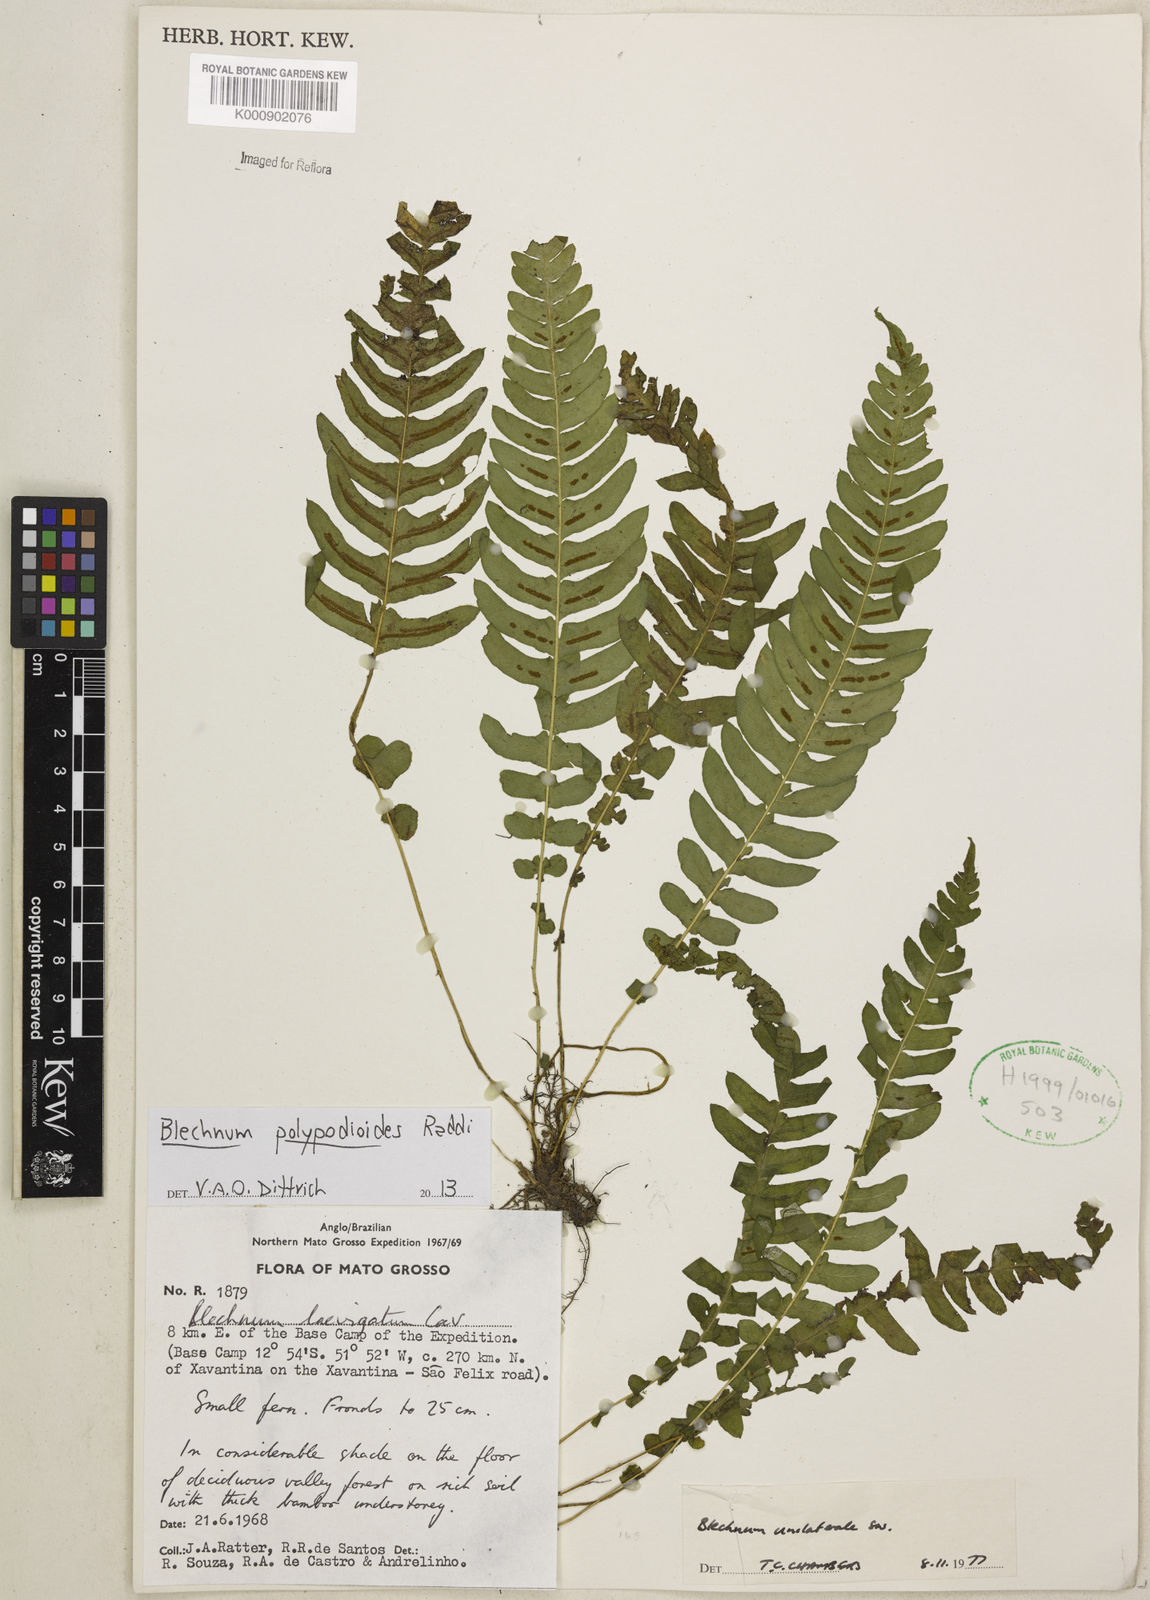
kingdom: Plantae
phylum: Tracheophyta
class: Polypodiopsida
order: Polypodiales
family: Blechnaceae
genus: Blechnum
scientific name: Blechnum polypodioides
